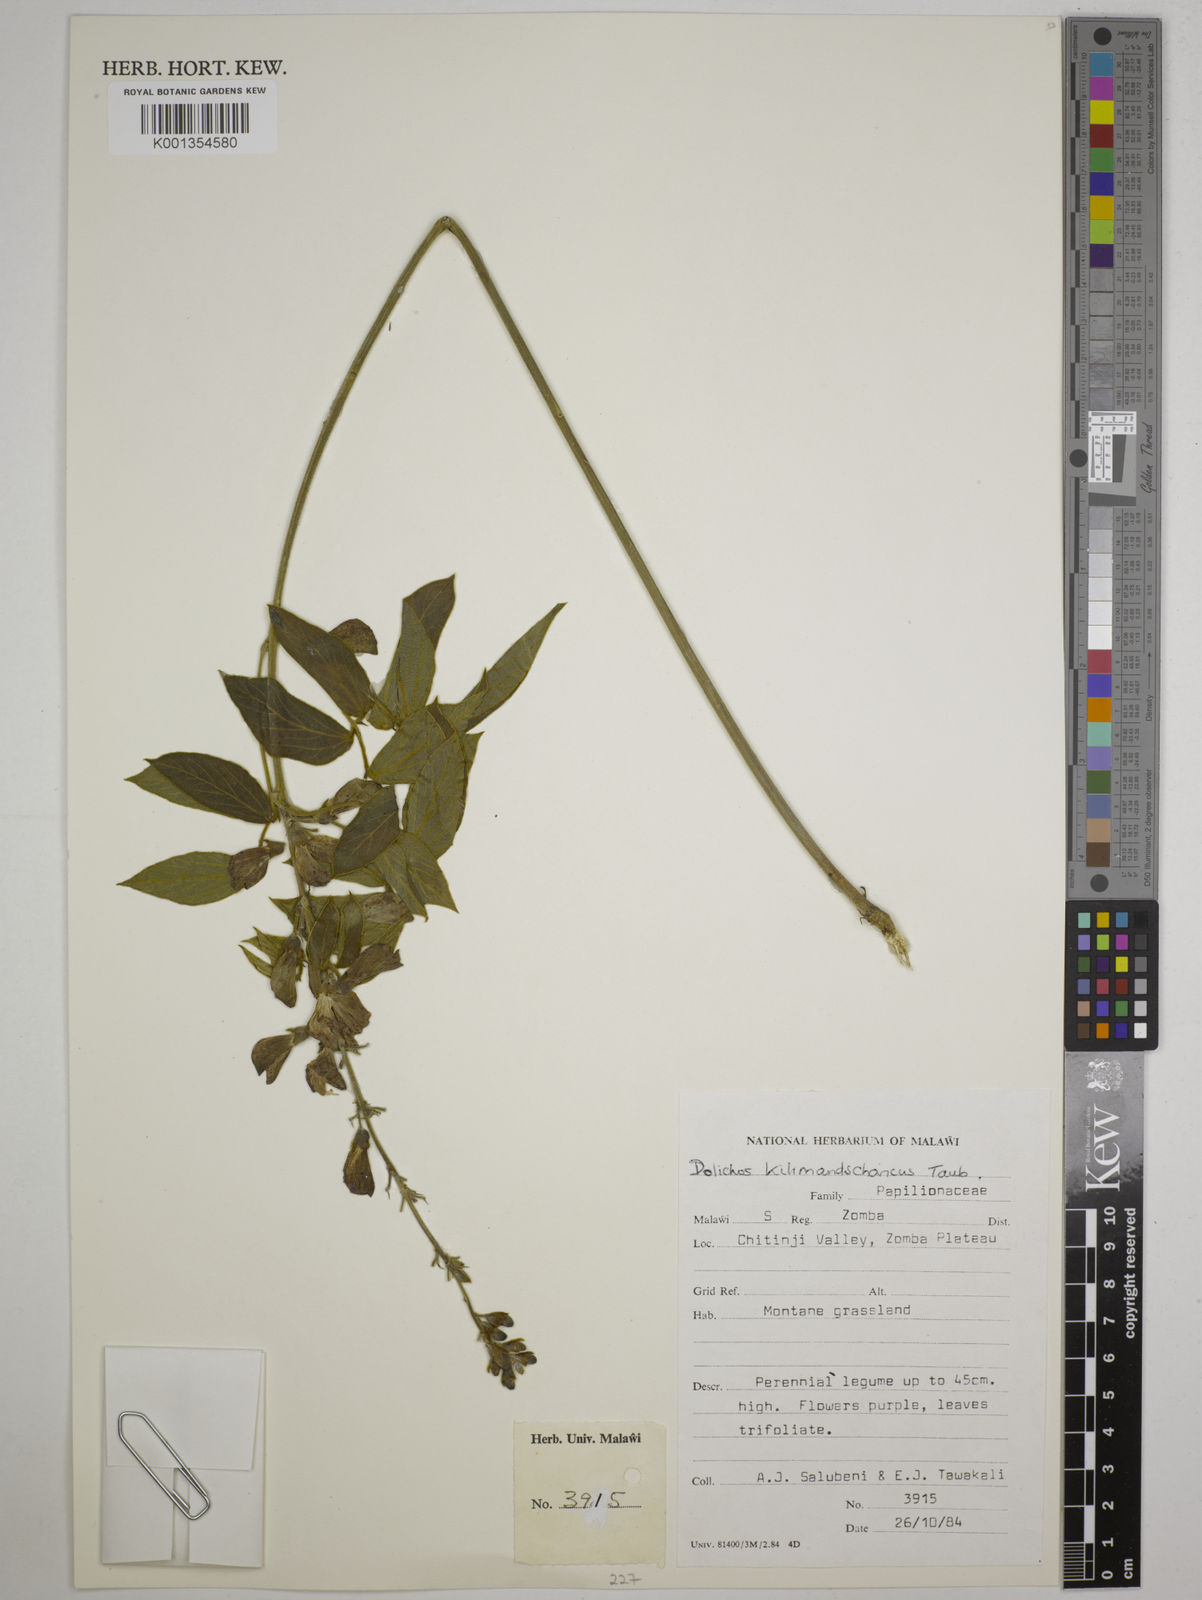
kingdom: Plantae
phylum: Tracheophyta
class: Magnoliopsida
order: Fabales
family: Fabaceae
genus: Dolichos
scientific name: Dolichos kilimandscharicus
